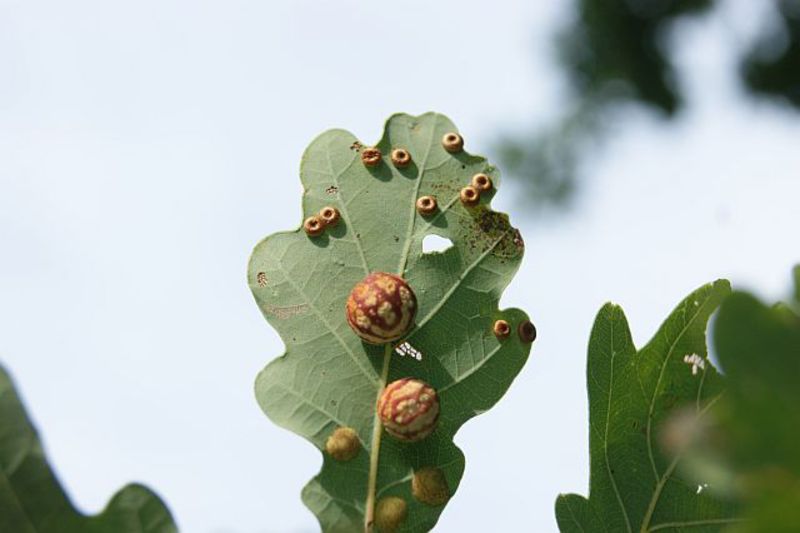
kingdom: Animalia
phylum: Arthropoda
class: Insecta
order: Hymenoptera
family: Cynipidae
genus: Cynips
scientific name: Cynips longiventris
